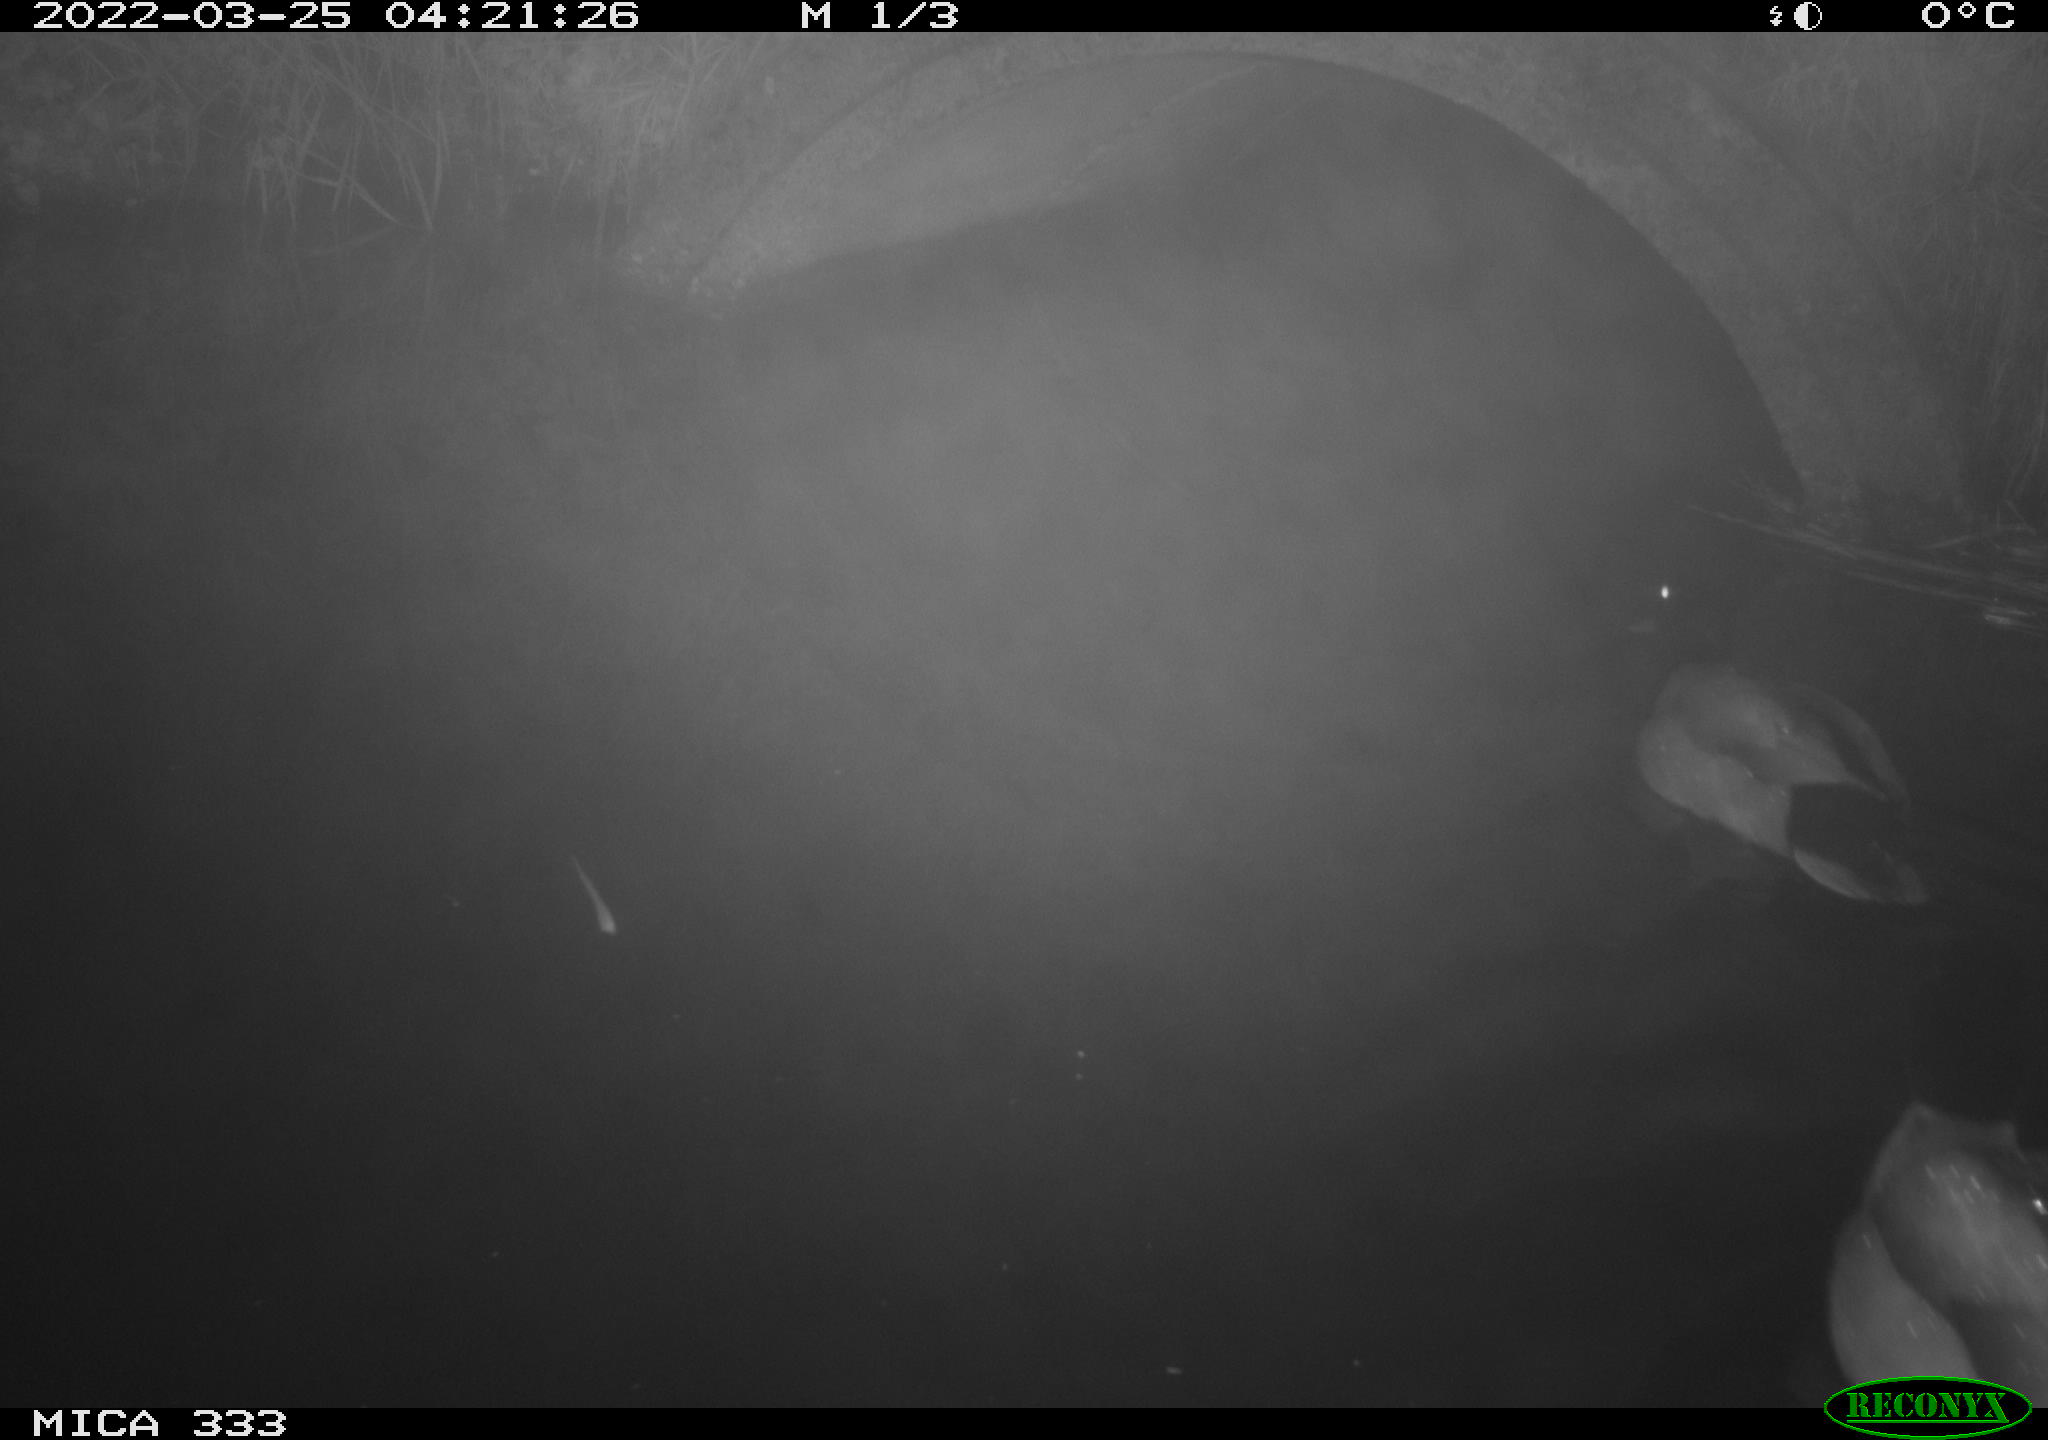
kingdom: Animalia
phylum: Chordata
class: Aves
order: Anseriformes
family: Anatidae
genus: Anas
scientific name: Anas platyrhynchos
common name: Mallard
